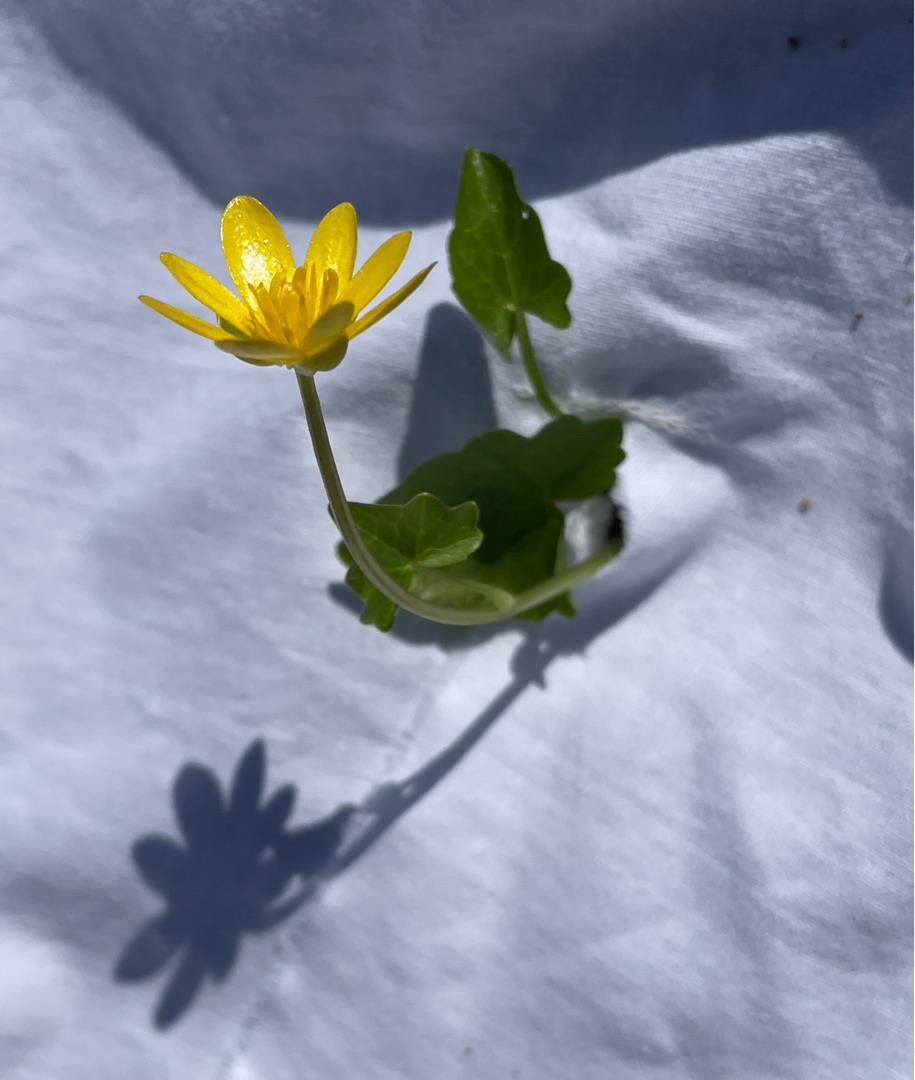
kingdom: Plantae
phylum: Tracheophyta
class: Magnoliopsida
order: Ranunculales
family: Ranunculaceae
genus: Ficaria
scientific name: Ficaria verna
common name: Vorterod
